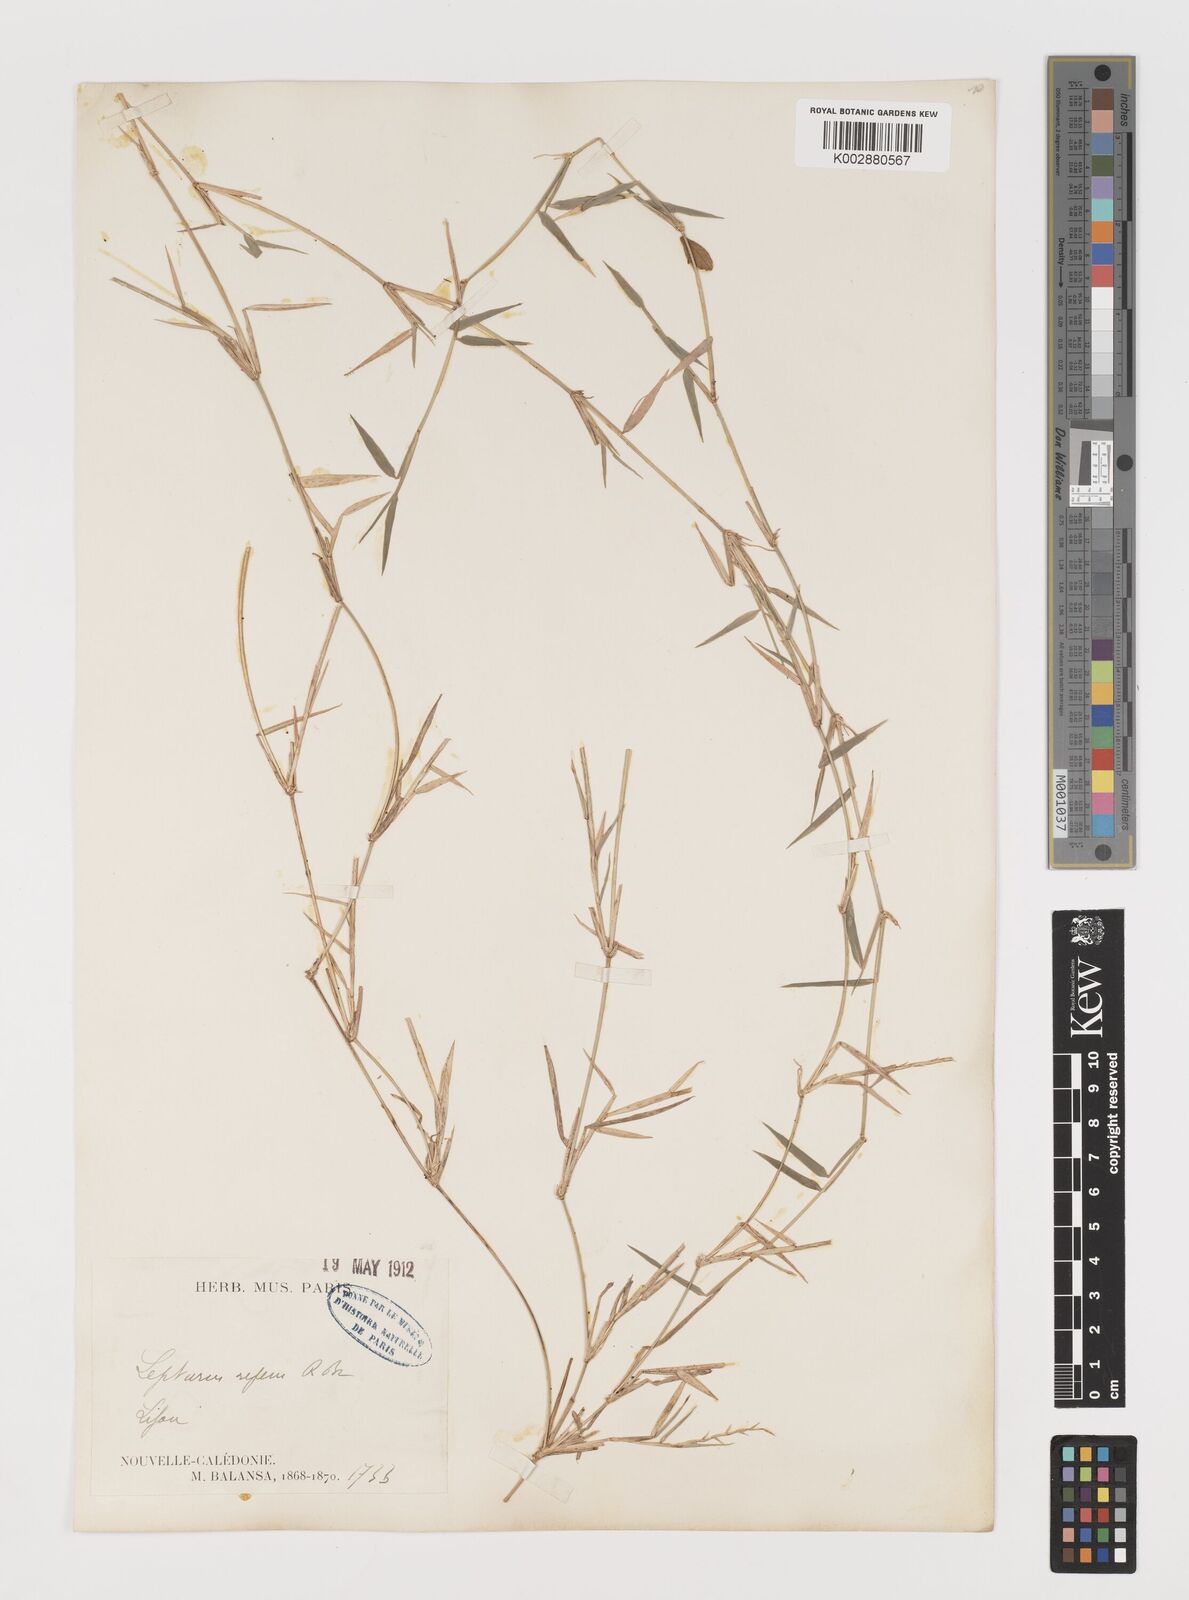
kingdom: Plantae
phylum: Tracheophyta
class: Liliopsida
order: Poales
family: Poaceae
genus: Lepturus
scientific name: Lepturus repens
